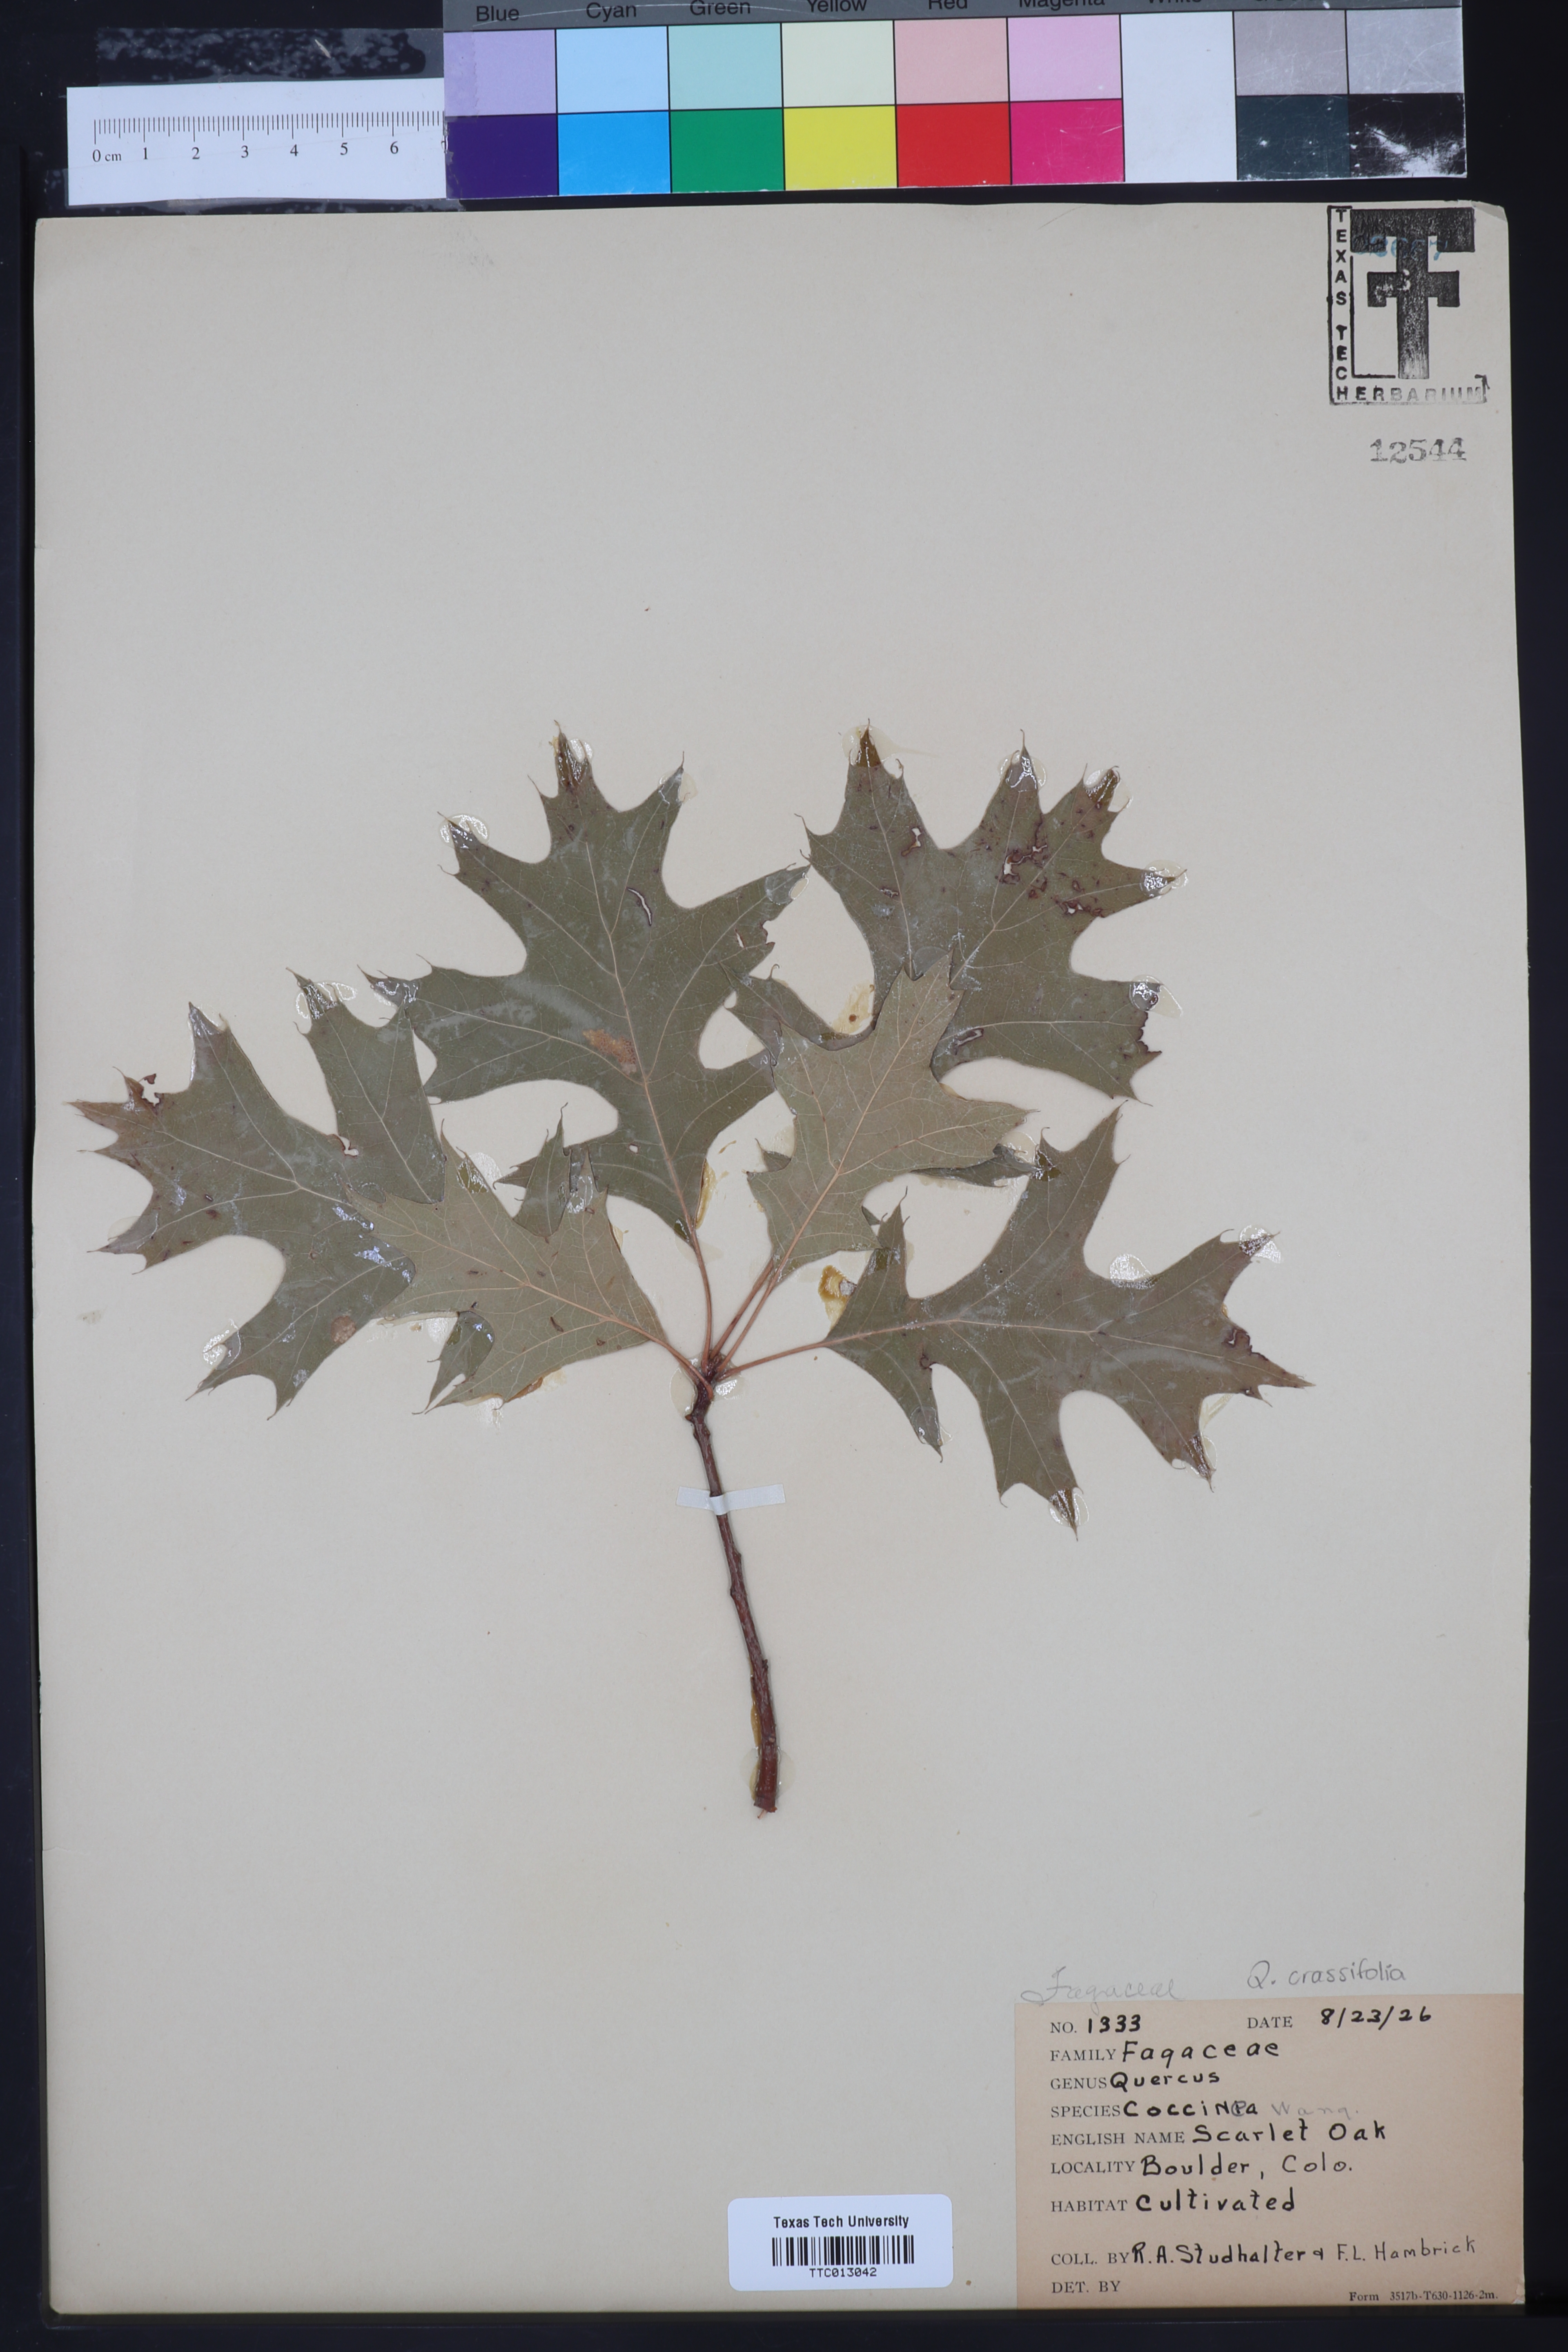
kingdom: Plantae
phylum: Tracheophyta
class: Magnoliopsida
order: Fagales
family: Fagaceae
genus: Quercus
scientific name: Quercus coccinea
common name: Scarlet oak
